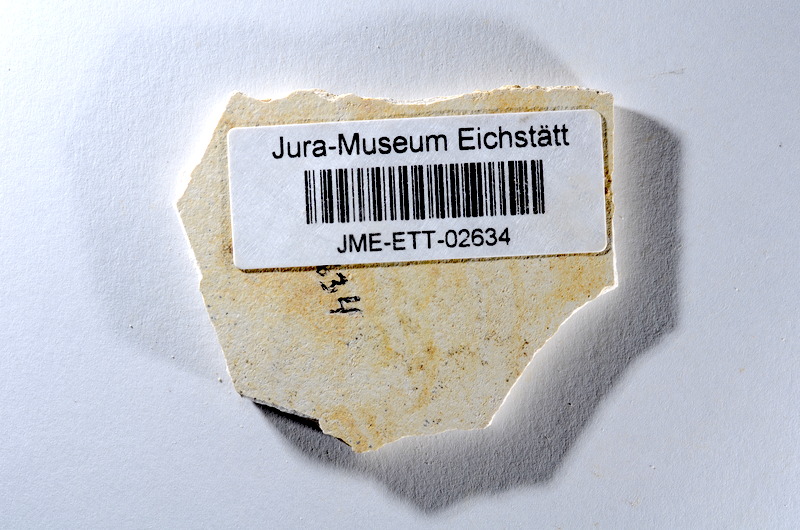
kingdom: Animalia
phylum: Chordata
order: Salmoniformes
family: Orthogonikleithridae
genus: Orthogonikleithrus
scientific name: Orthogonikleithrus hoelli
